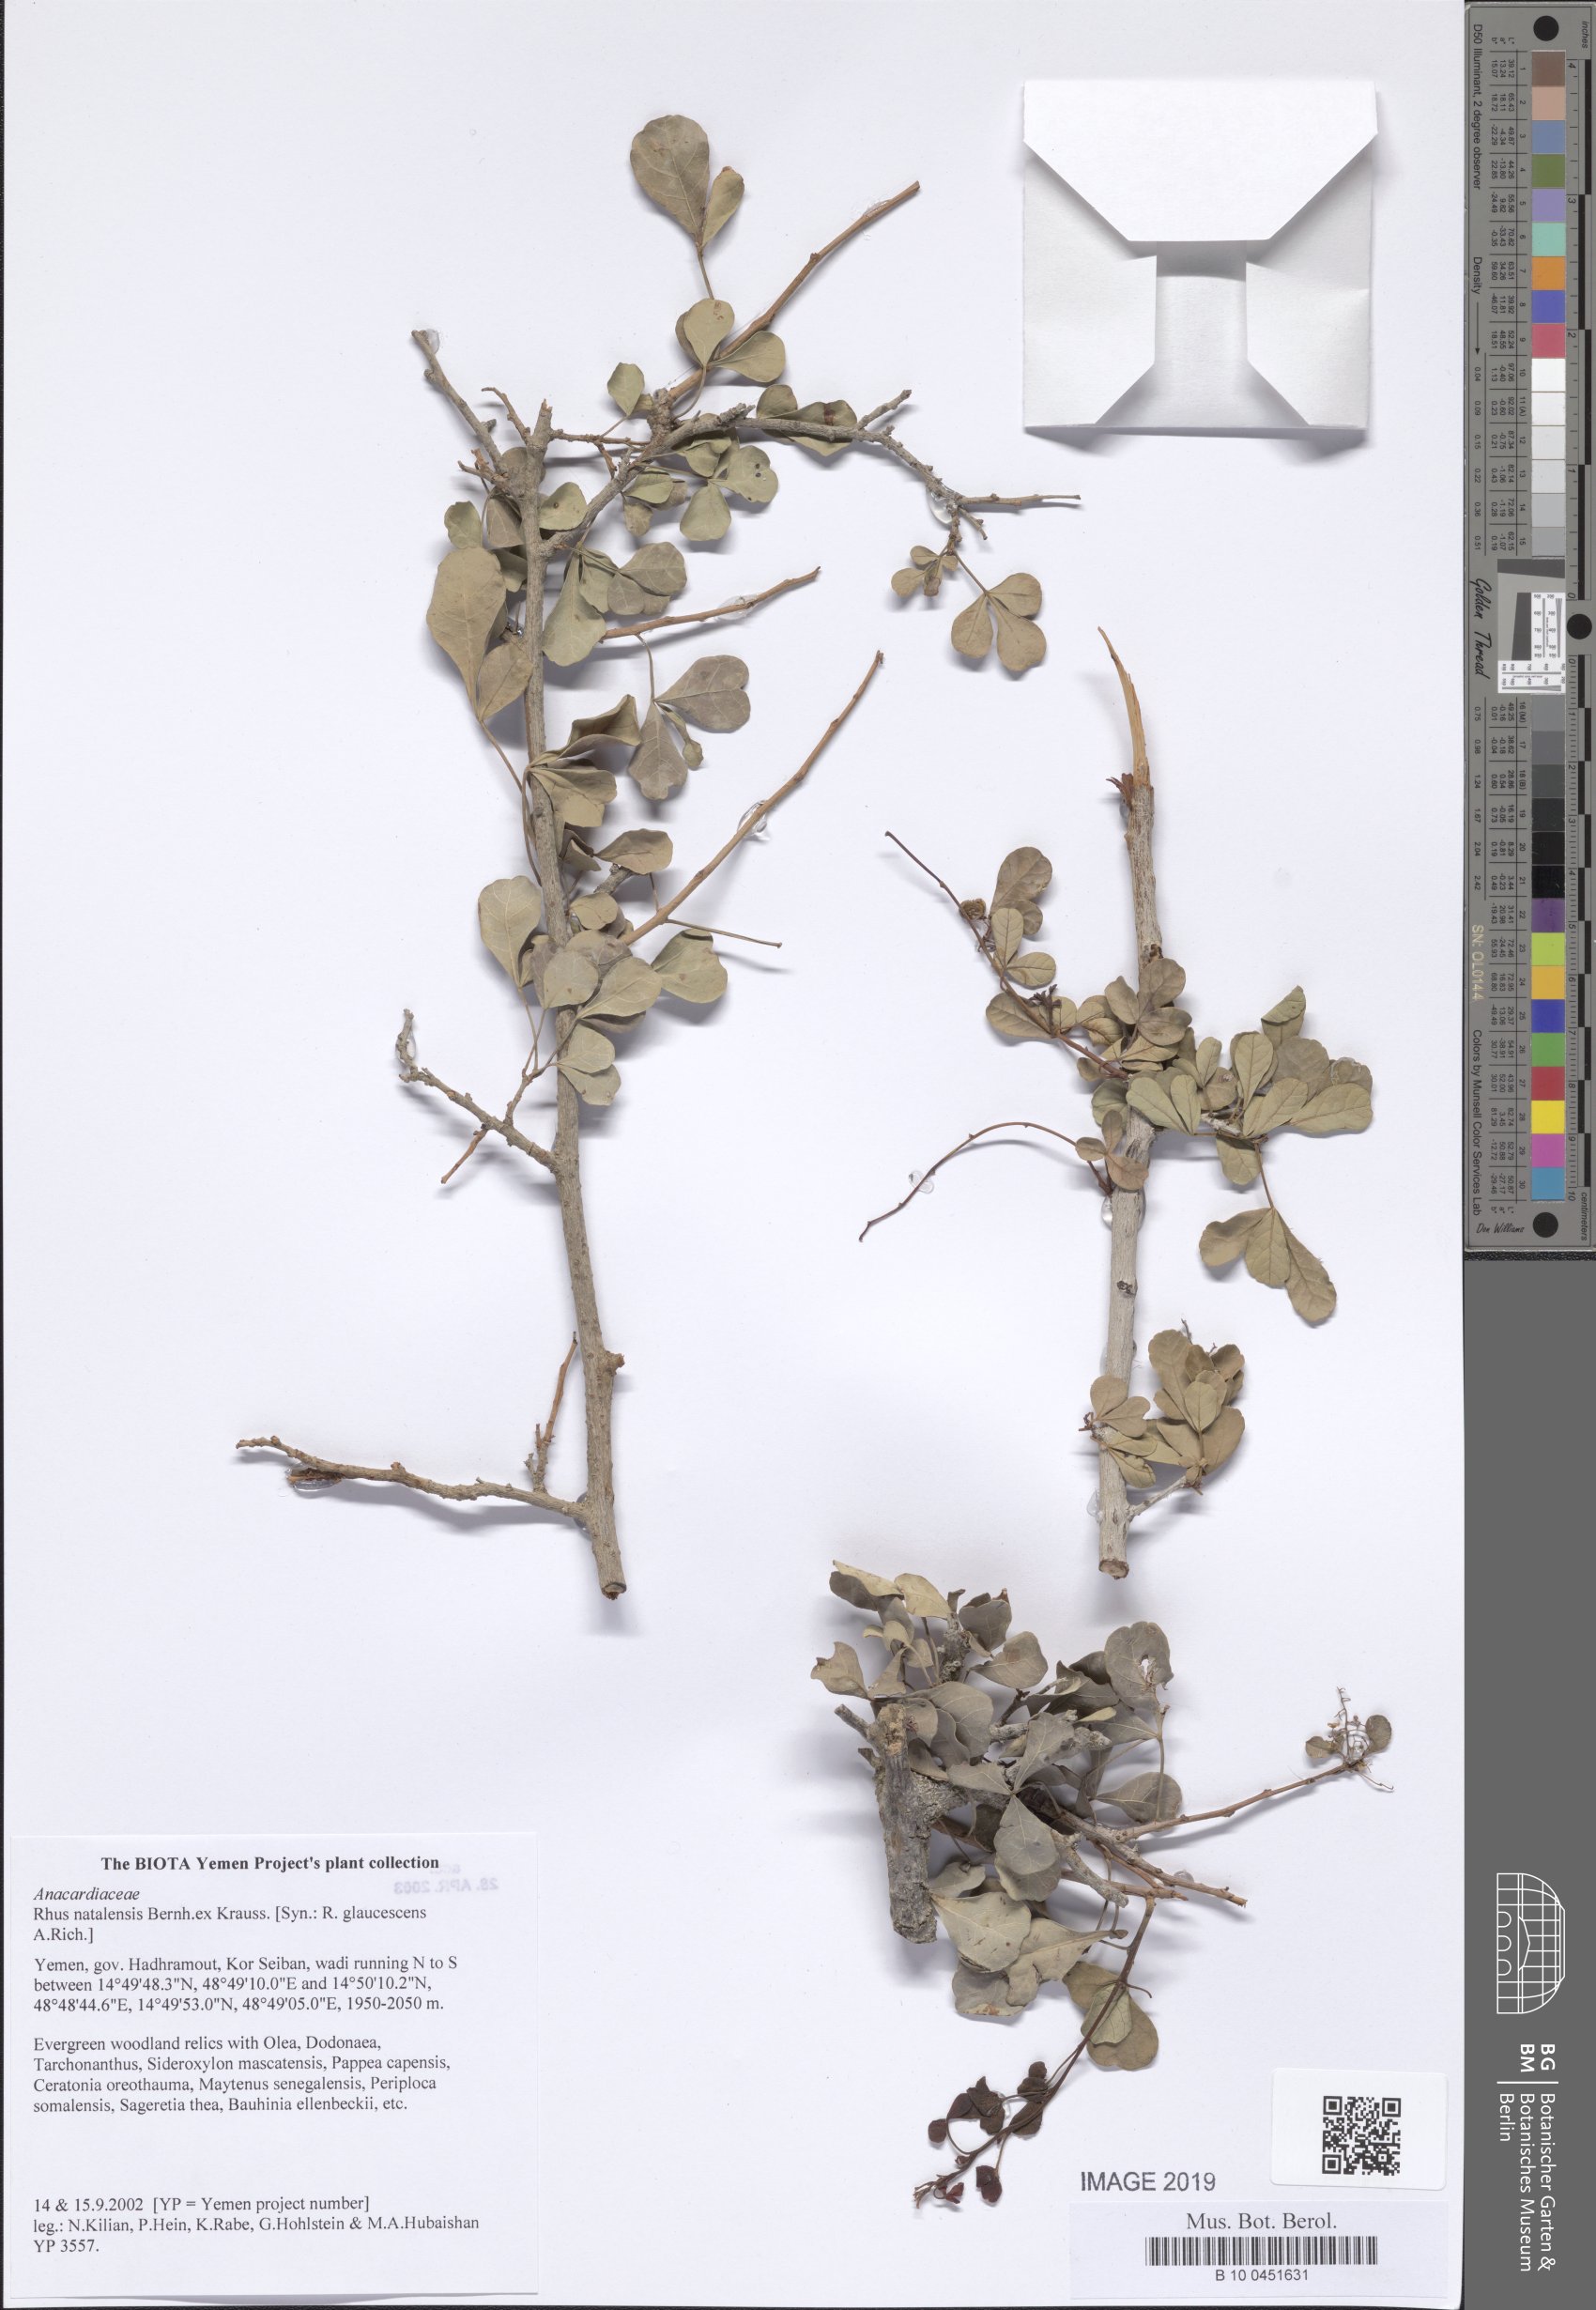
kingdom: Plantae
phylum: Tracheophyta
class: Magnoliopsida
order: Sapindales
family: Anacardiaceae
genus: Searsia
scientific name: Searsia natalensis
